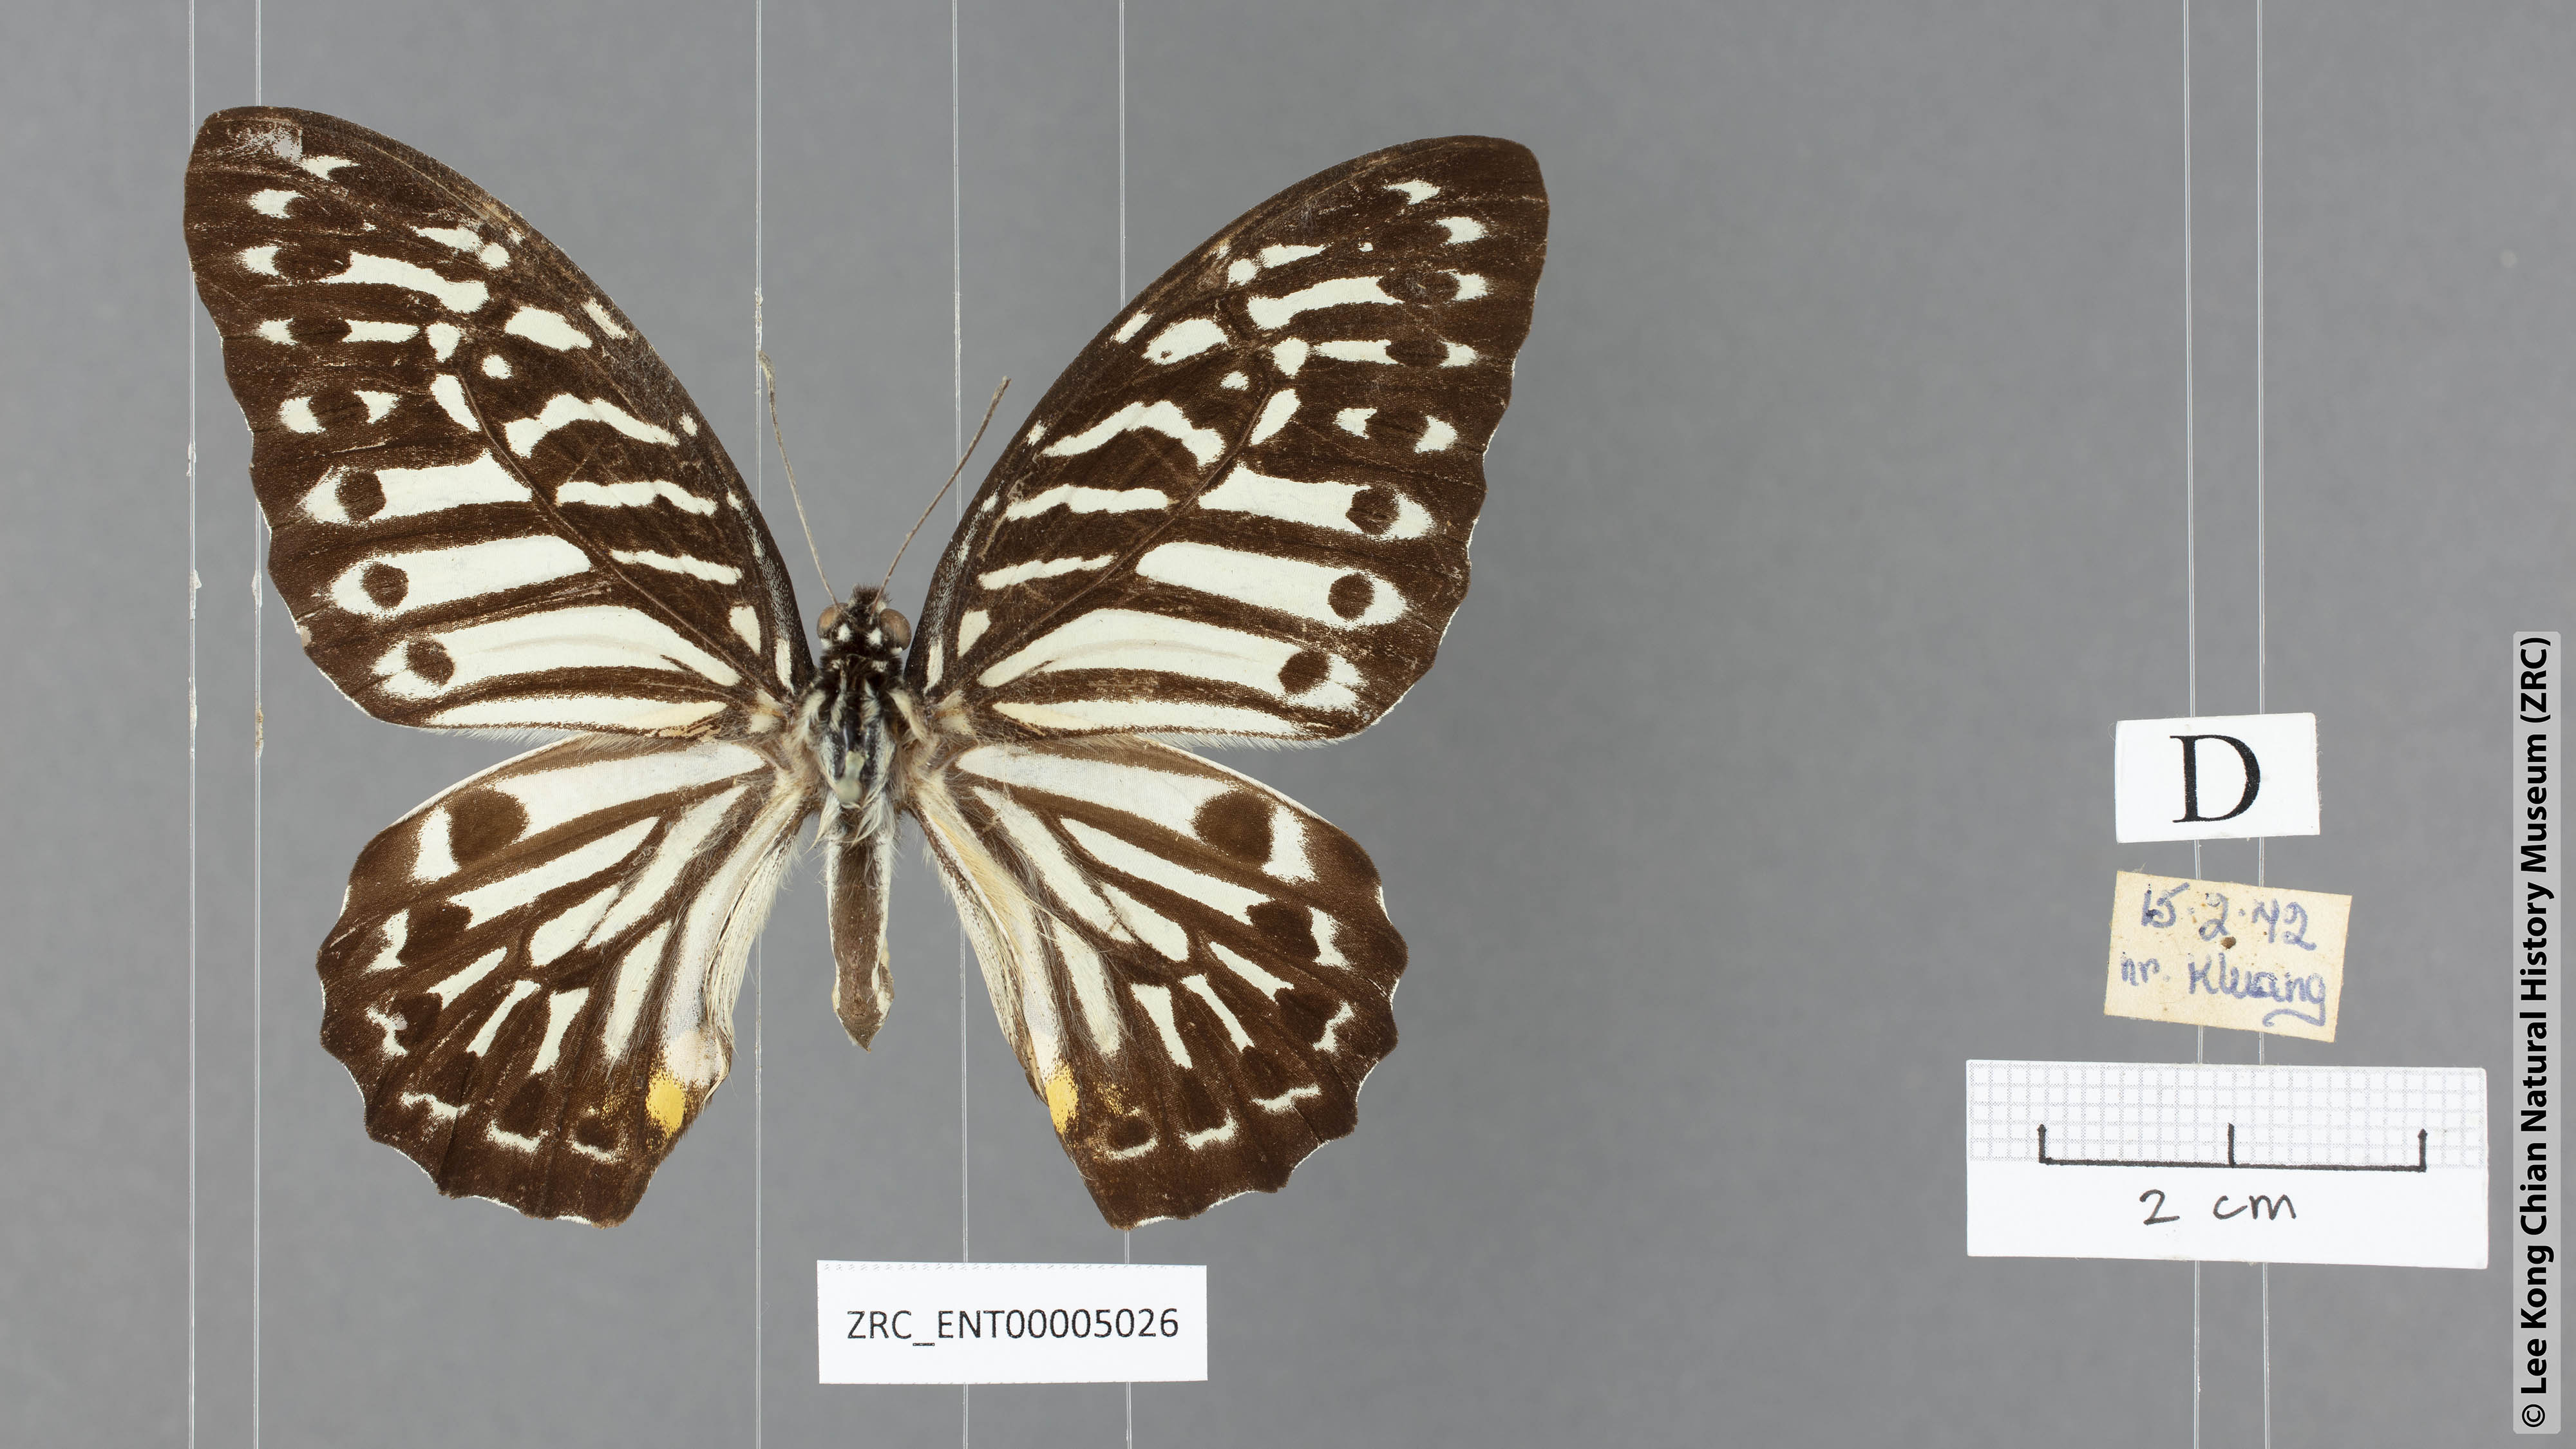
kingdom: Animalia
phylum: Arthropoda
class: Insecta
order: Lepidoptera
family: Papilionidae
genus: Graphium
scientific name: Graphium delesserti
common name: Malayan zebra
